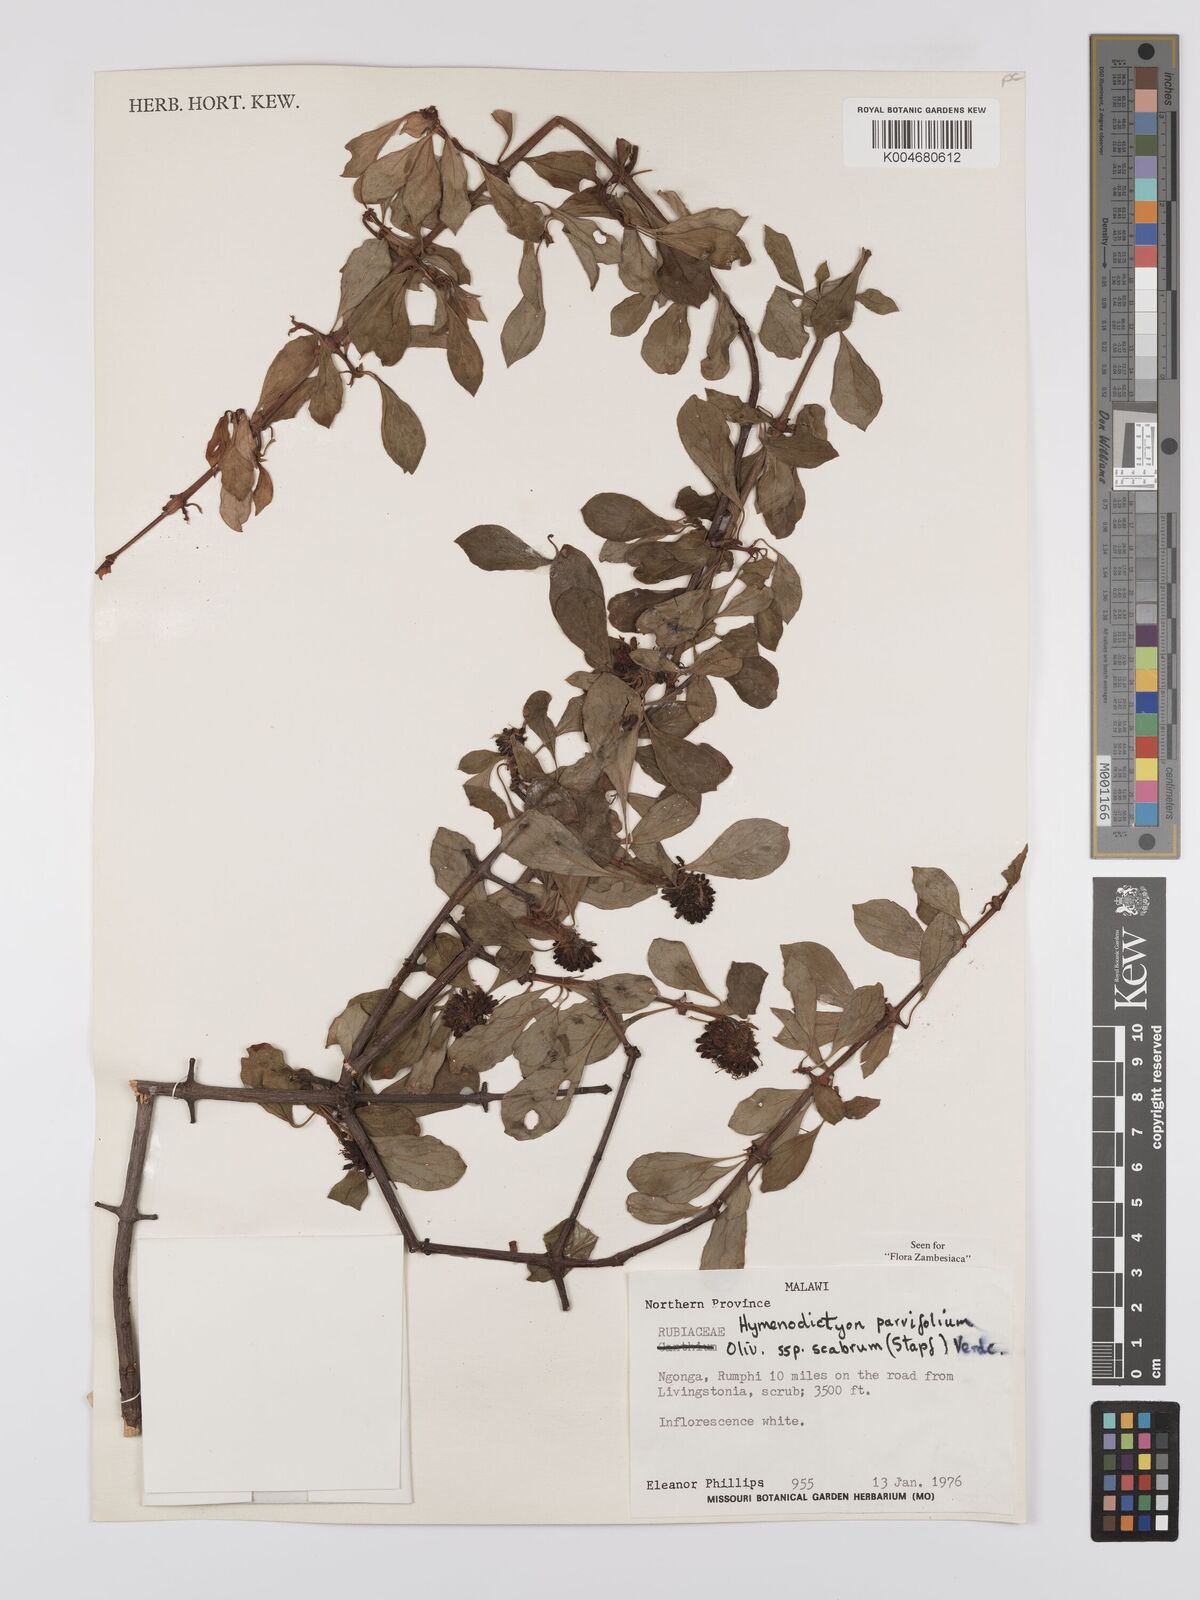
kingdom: Plantae
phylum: Tracheophyta
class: Magnoliopsida
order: Gentianales
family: Rubiaceae
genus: Hymenodictyon
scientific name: Hymenodictyon parvifolium
